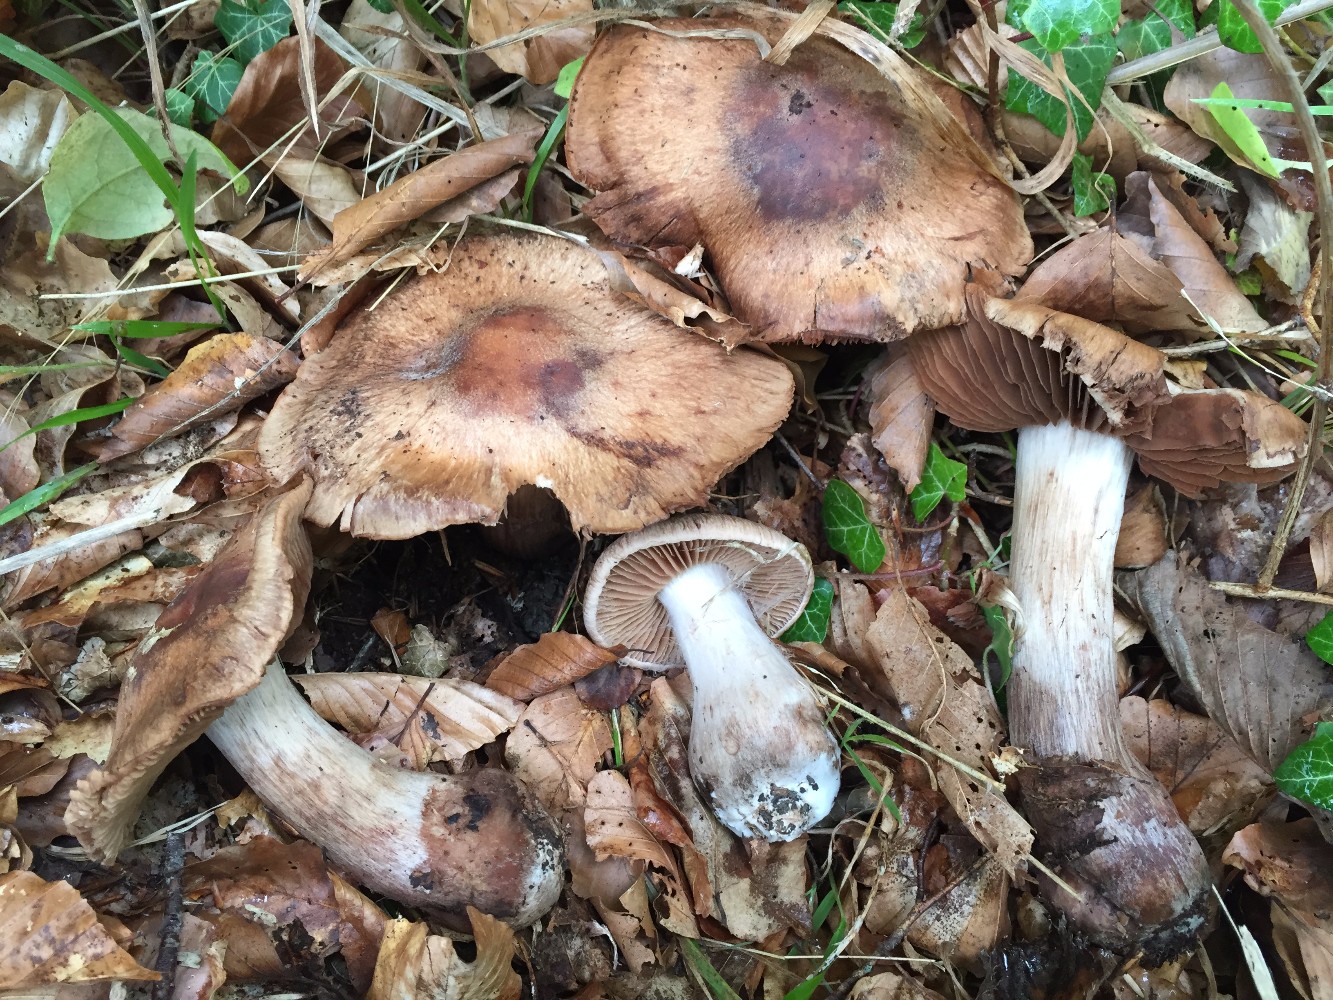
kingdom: Fungi
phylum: Basidiomycota
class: Agaricomycetes
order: Agaricales
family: Cortinariaceae
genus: Cortinarius
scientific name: Cortinarius
